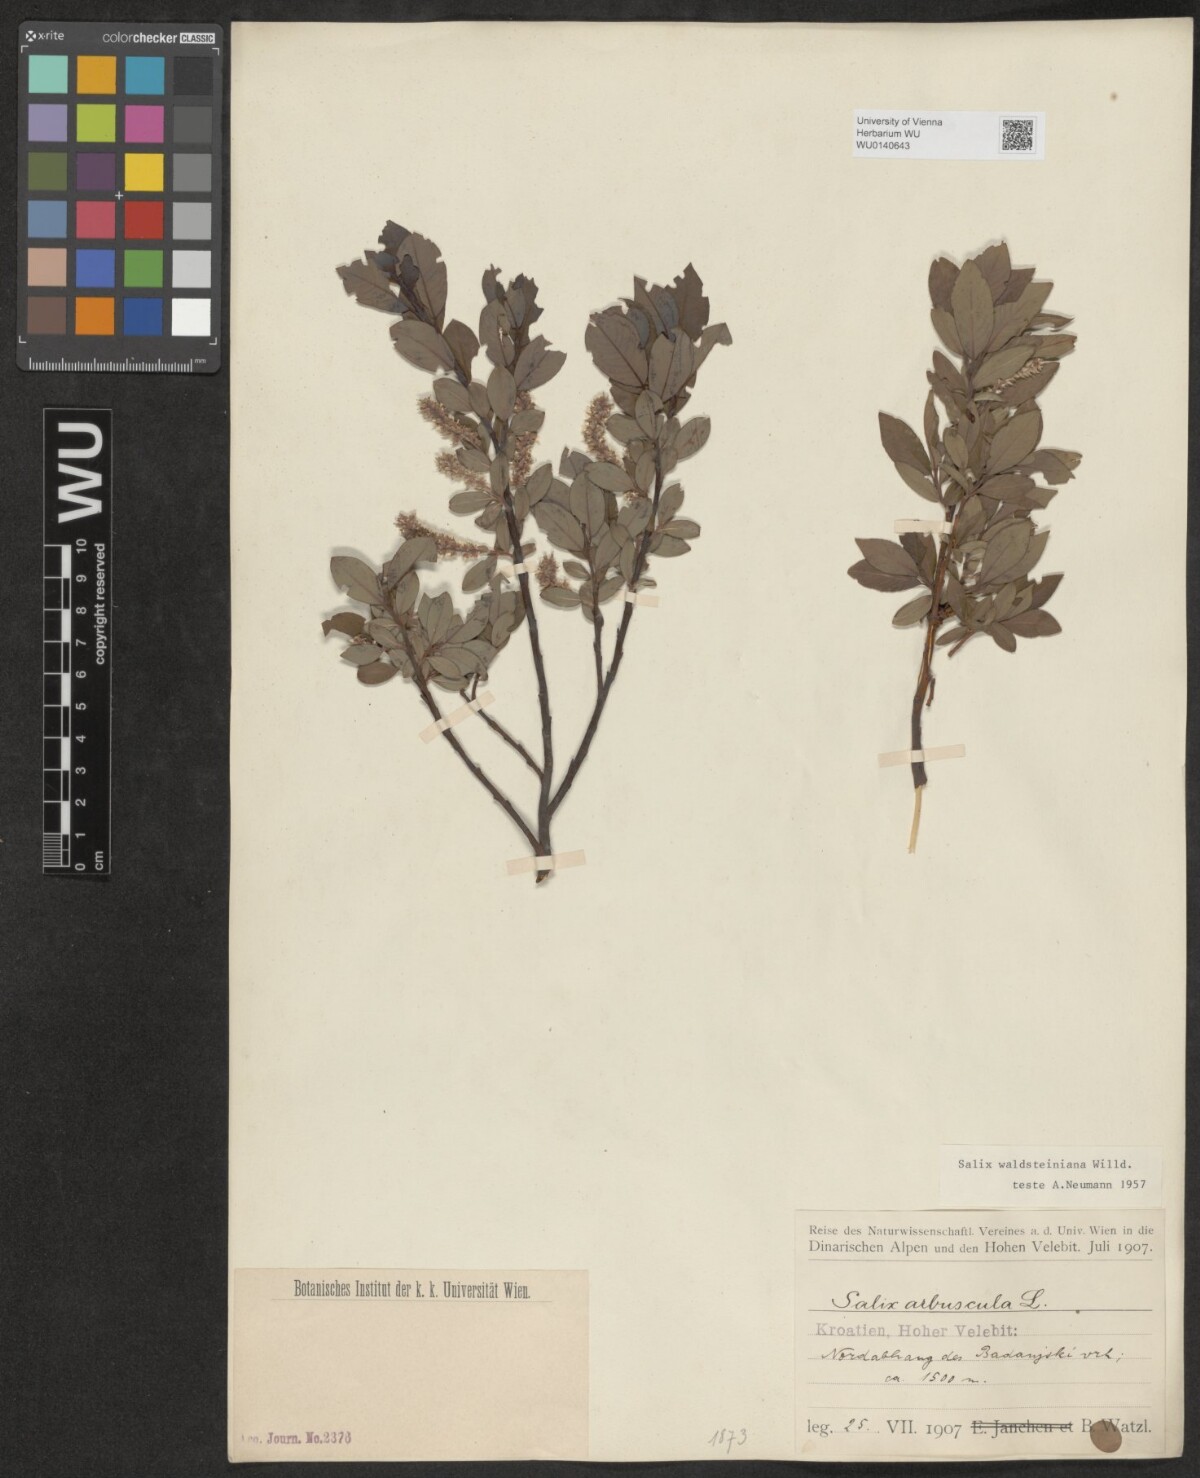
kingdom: Plantae
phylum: Tracheophyta
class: Magnoliopsida
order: Malpighiales
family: Salicaceae
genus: Salix
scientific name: Salix waldsteiniana
